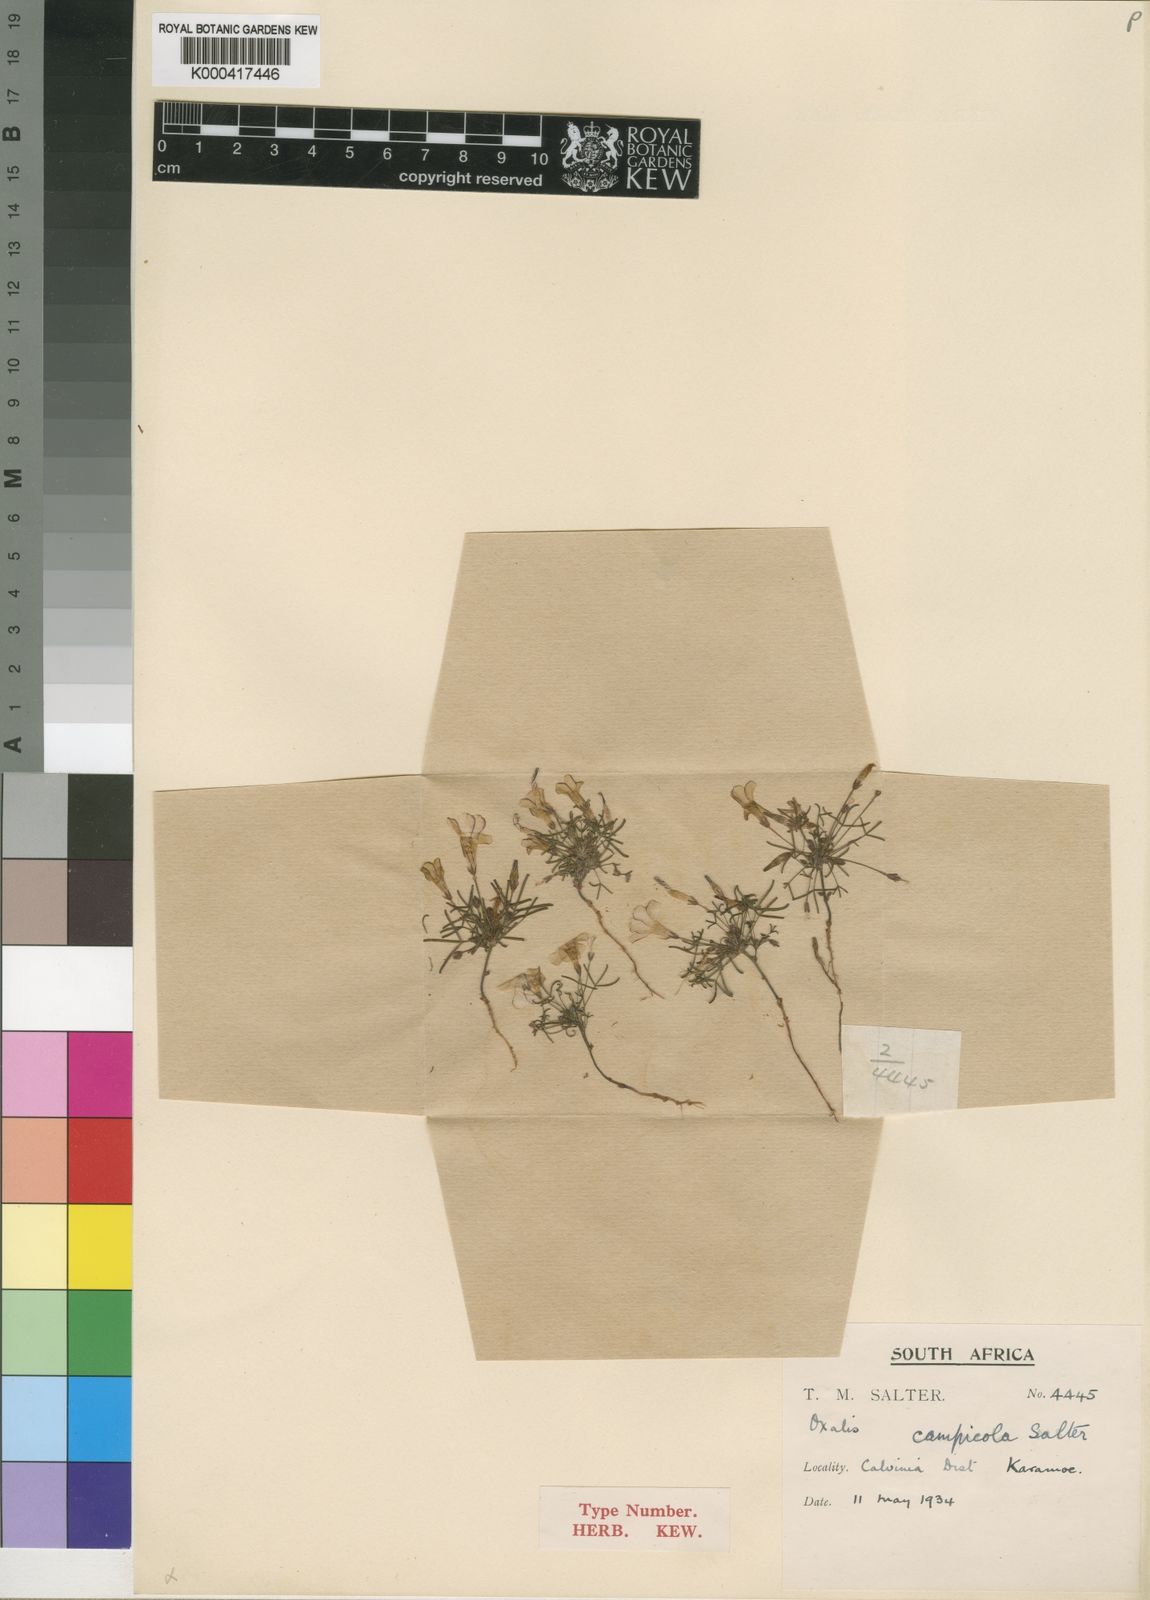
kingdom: Plantae
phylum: Tracheophyta
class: Magnoliopsida
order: Oxalidales
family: Oxalidaceae
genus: Oxalis
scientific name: Oxalis campicola
